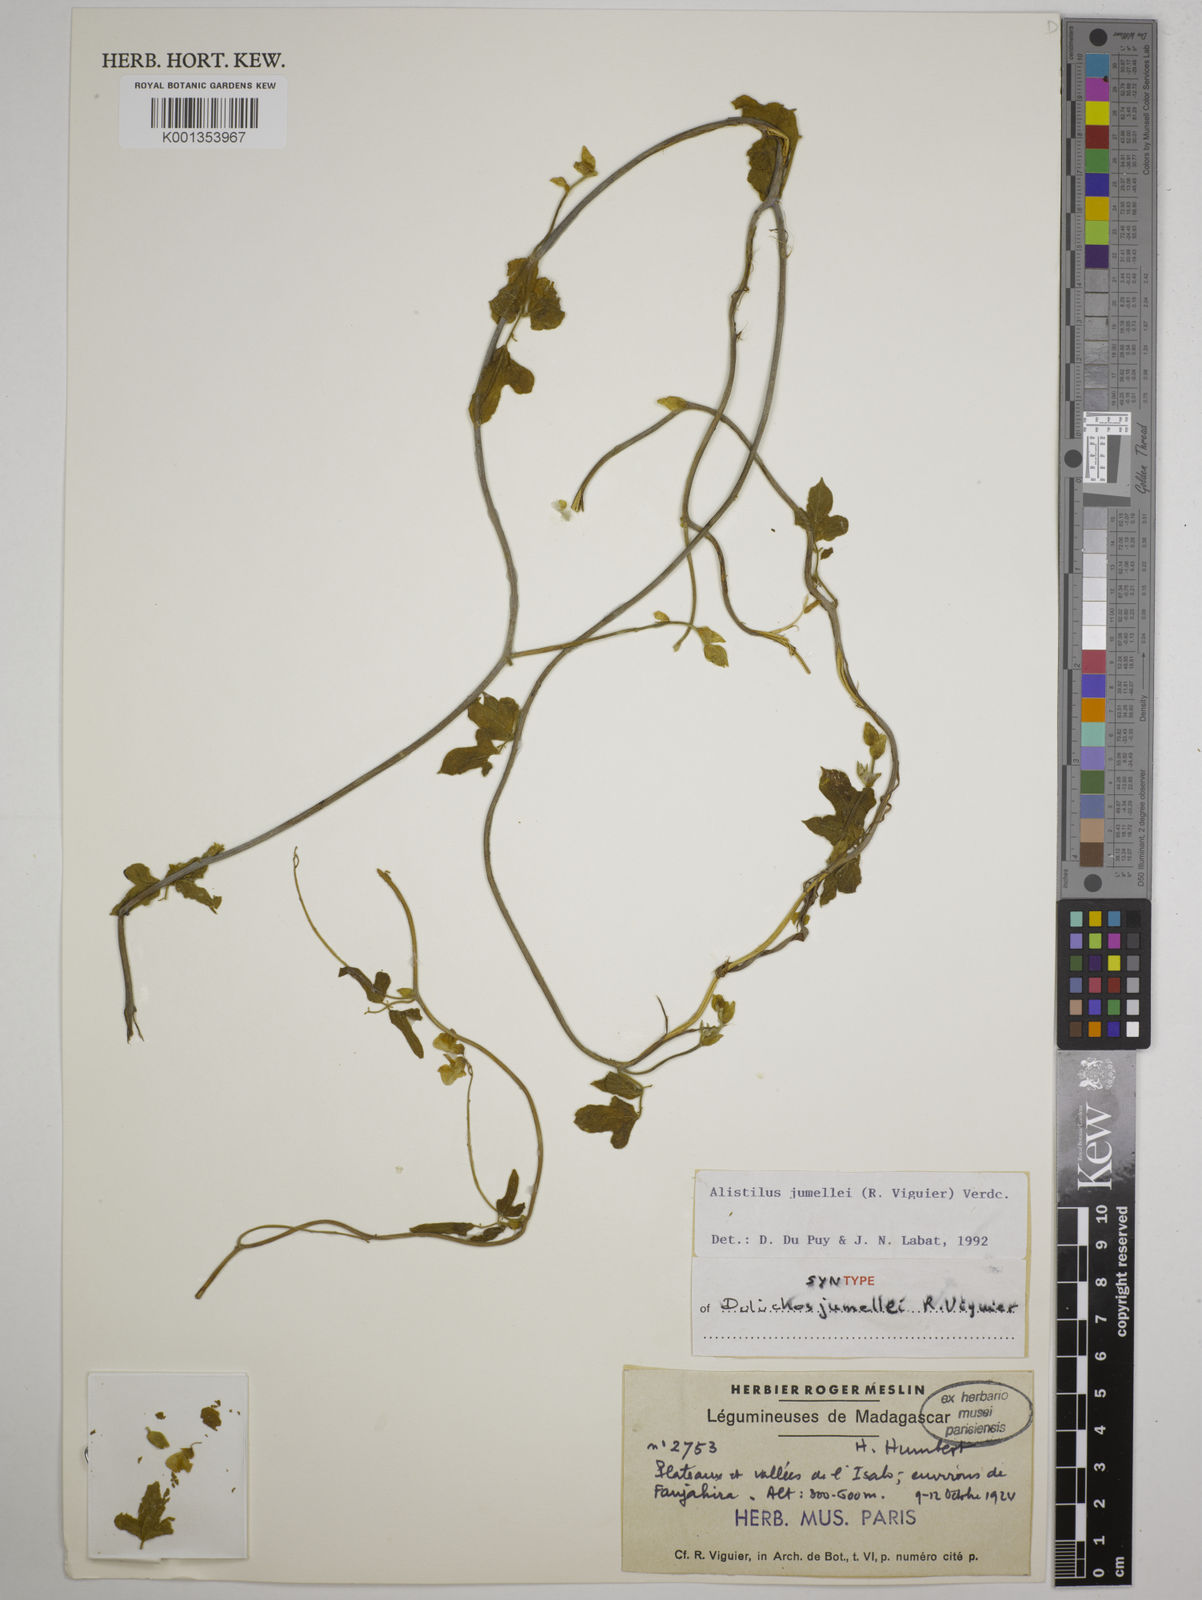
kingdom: Plantae
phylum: Tracheophyta
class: Magnoliopsida
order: Fabales
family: Fabaceae
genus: Alistilus
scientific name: Alistilus jumellei
